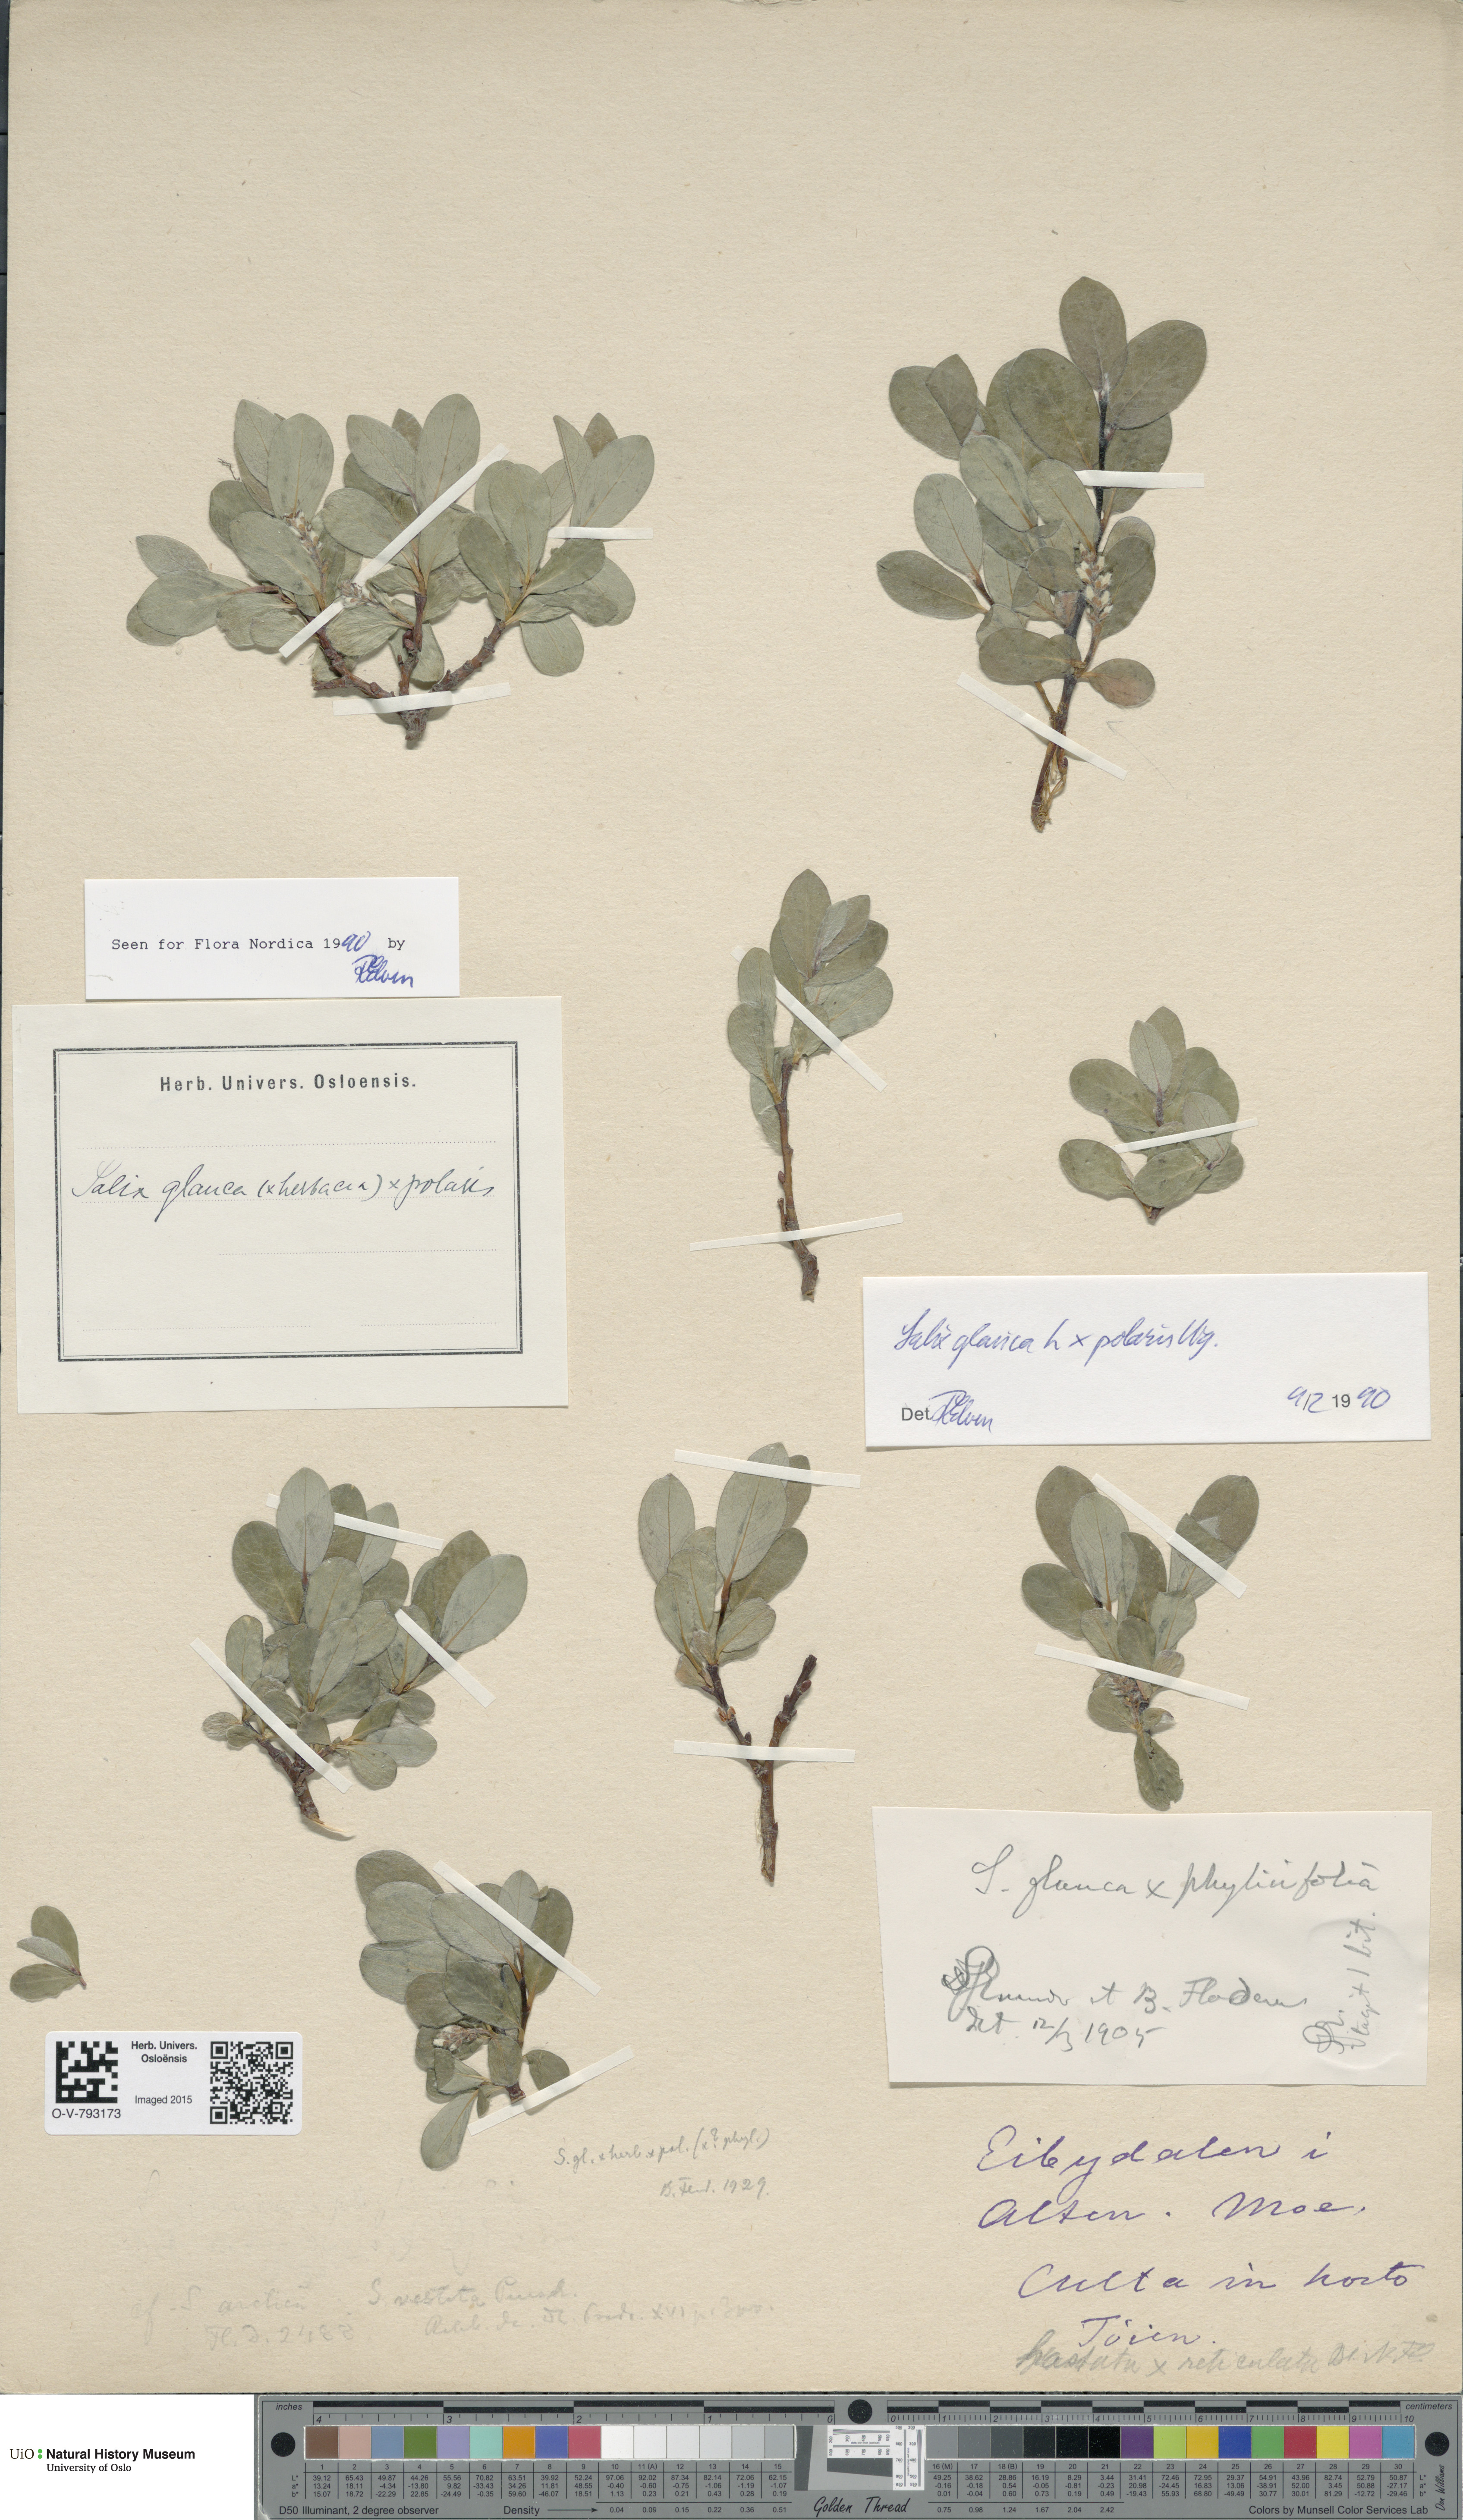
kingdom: Plantae
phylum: Tracheophyta
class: Magnoliopsida
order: Malpighiales
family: Salicaceae
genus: Salix
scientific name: Salix
